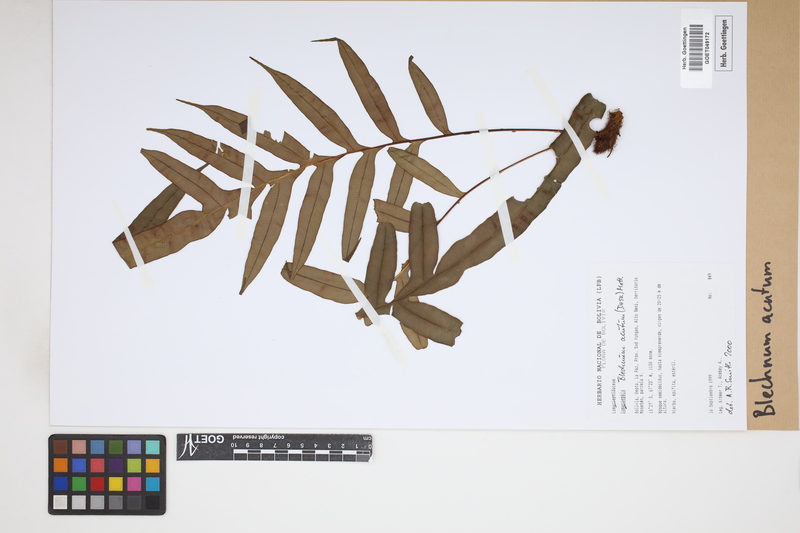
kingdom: Plantae
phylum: Tracheophyta
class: Polypodiopsida
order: Polypodiales
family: Blechnaceae
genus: Lomaridium
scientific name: Lomaridium acutum
